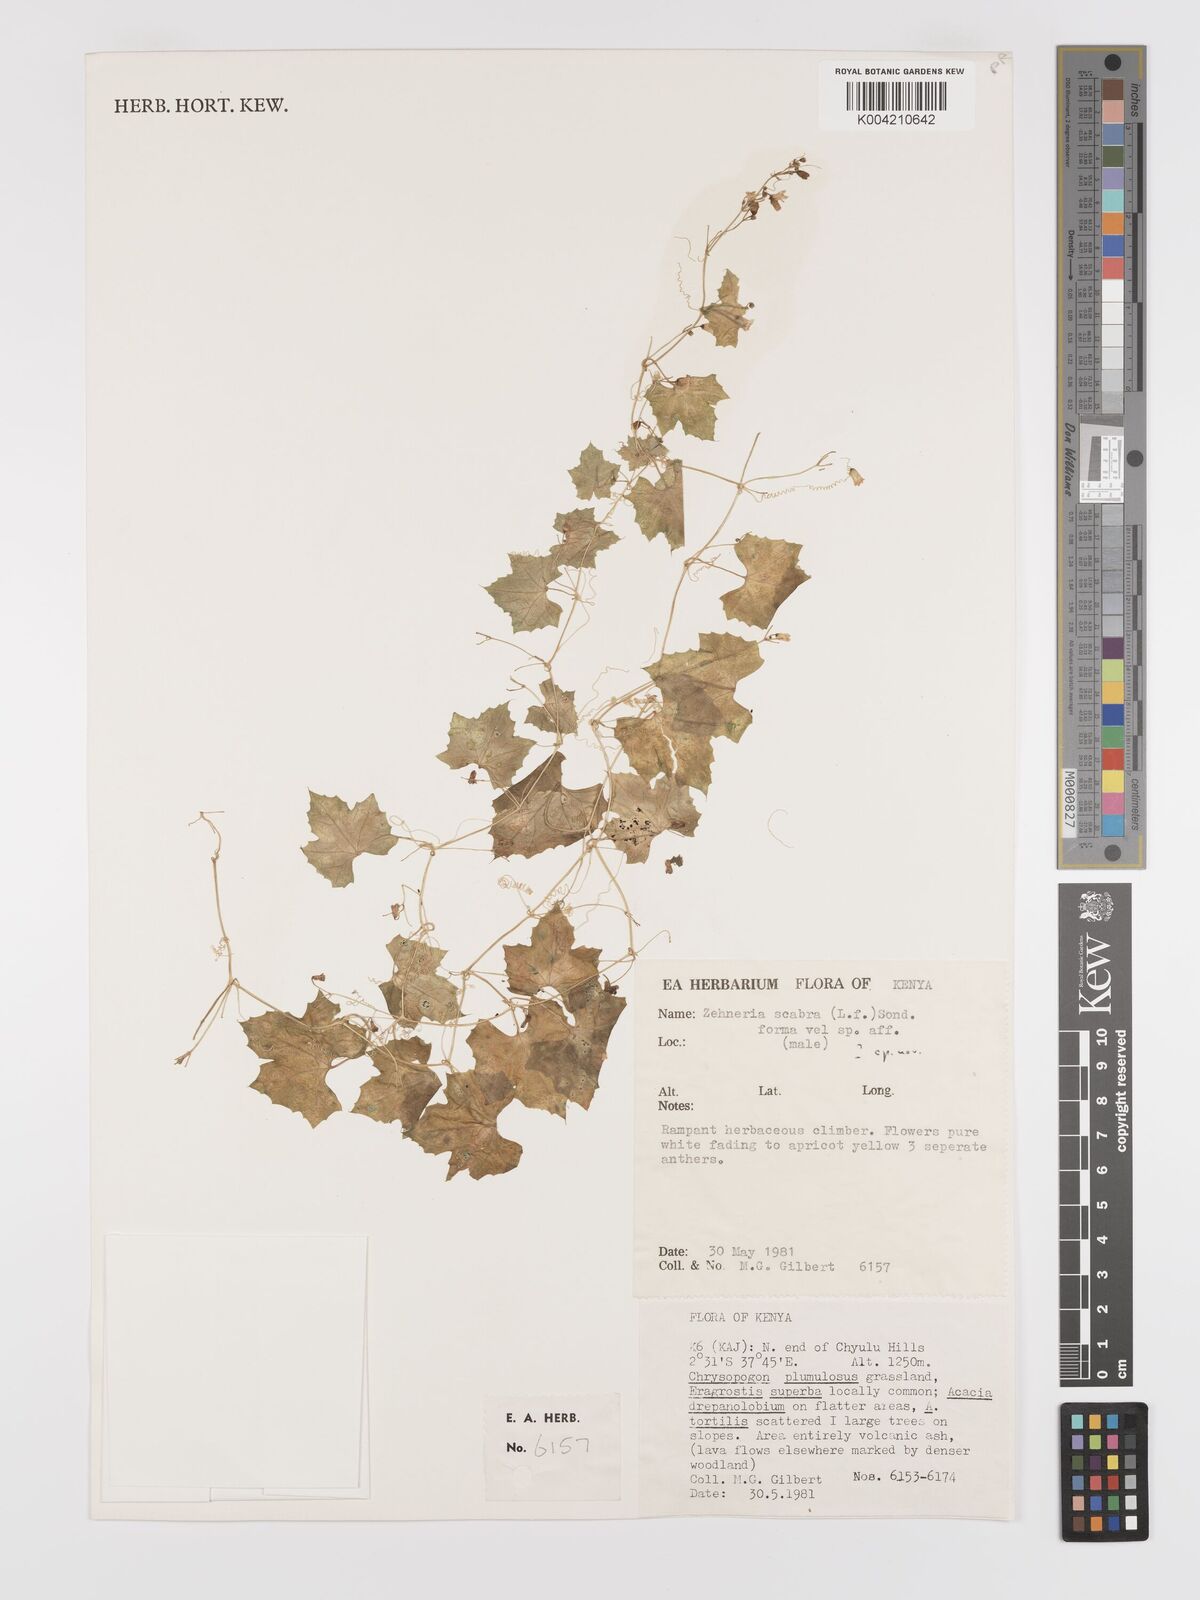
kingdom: Plantae
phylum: Tracheophyta
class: Magnoliopsida
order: Cucurbitales
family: Cucurbitaceae
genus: Zehneria
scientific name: Zehneria
